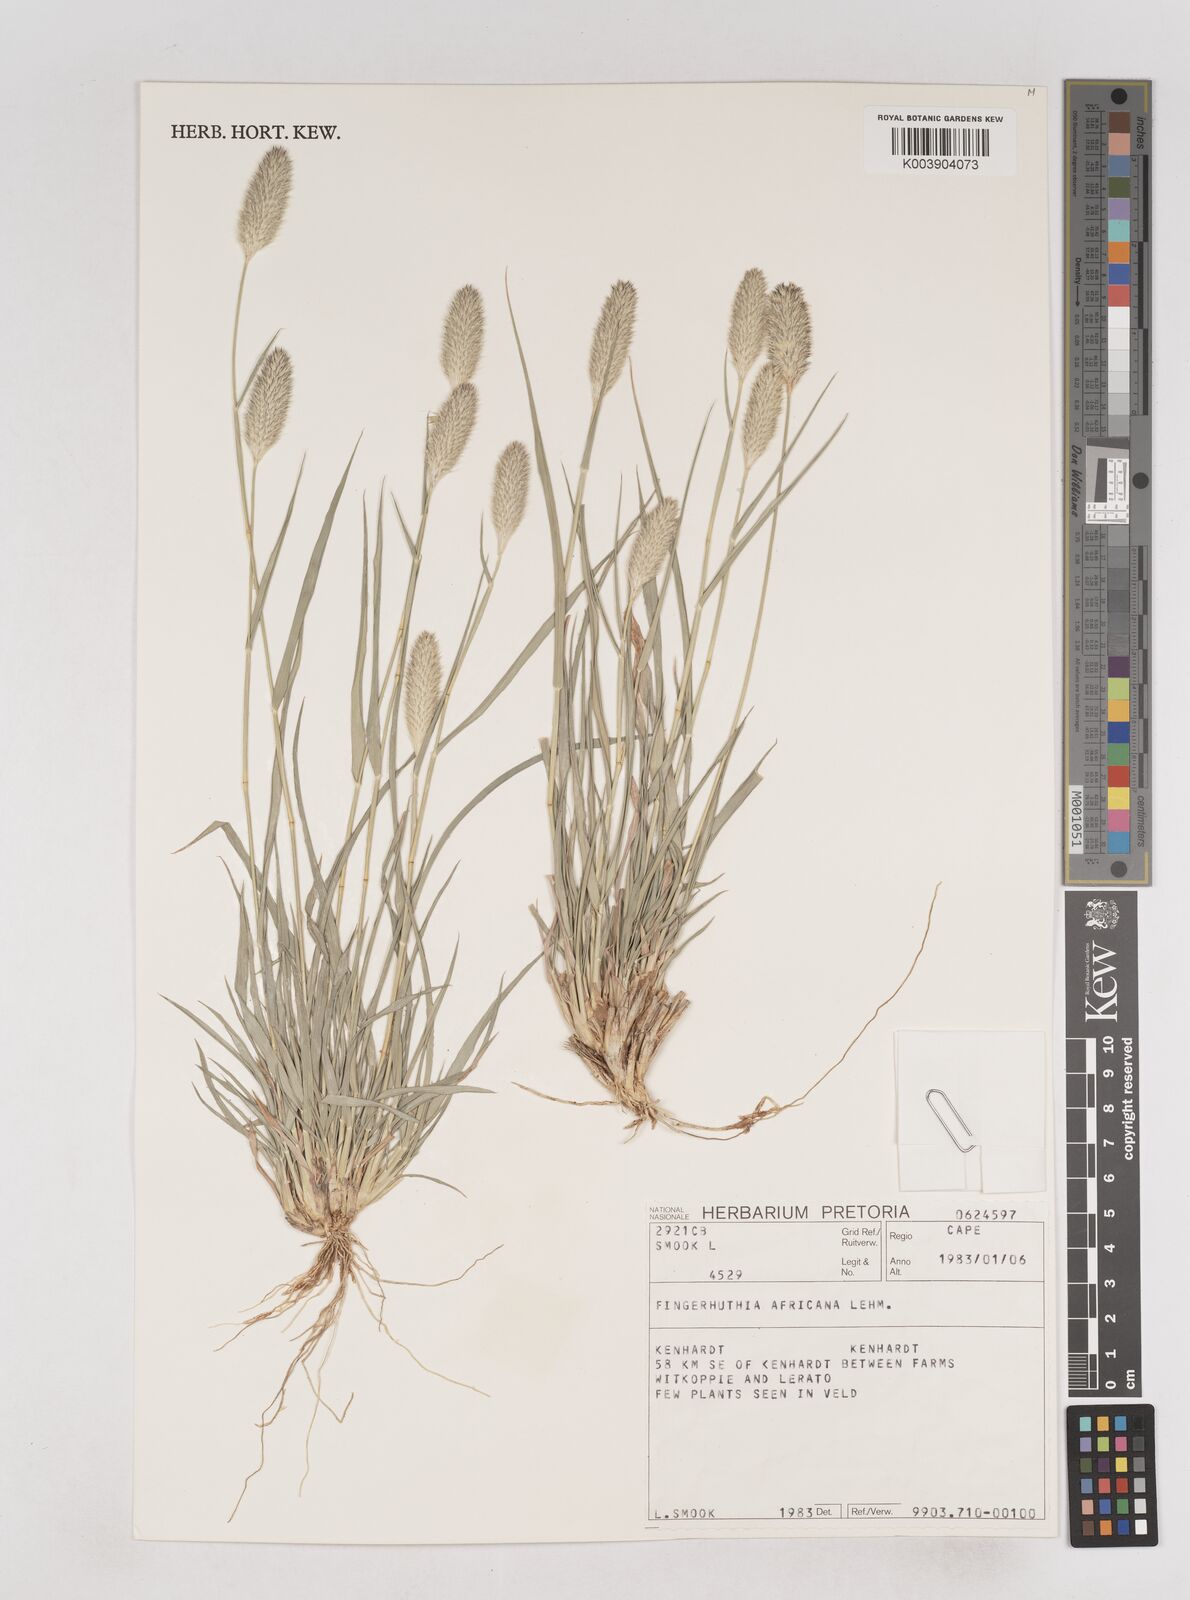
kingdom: Plantae
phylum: Tracheophyta
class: Liliopsida
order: Poales
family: Poaceae
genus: Fingerhuthia
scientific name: Fingerhuthia africana
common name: Zulu fescue
